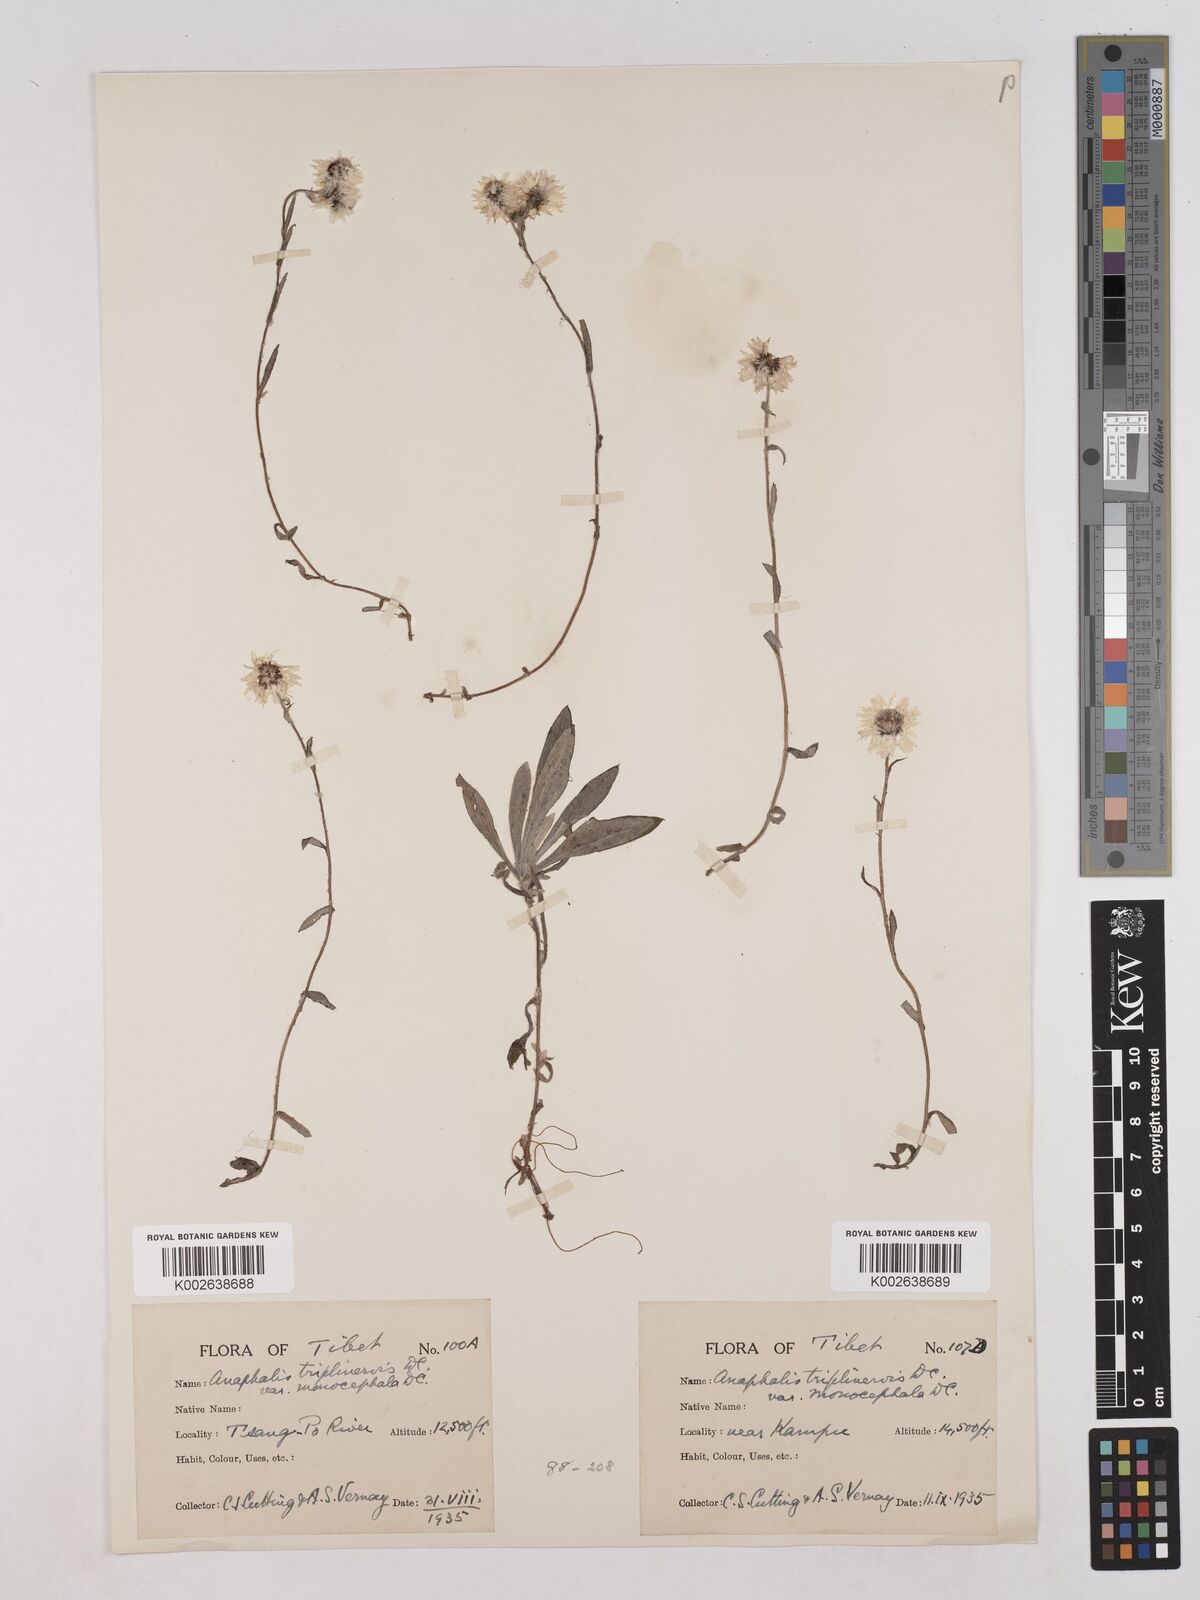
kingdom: Plantae
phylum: Tracheophyta
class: Magnoliopsida
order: Asterales
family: Asteraceae
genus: Anaphalis
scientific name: Anaphalis nepalensis
